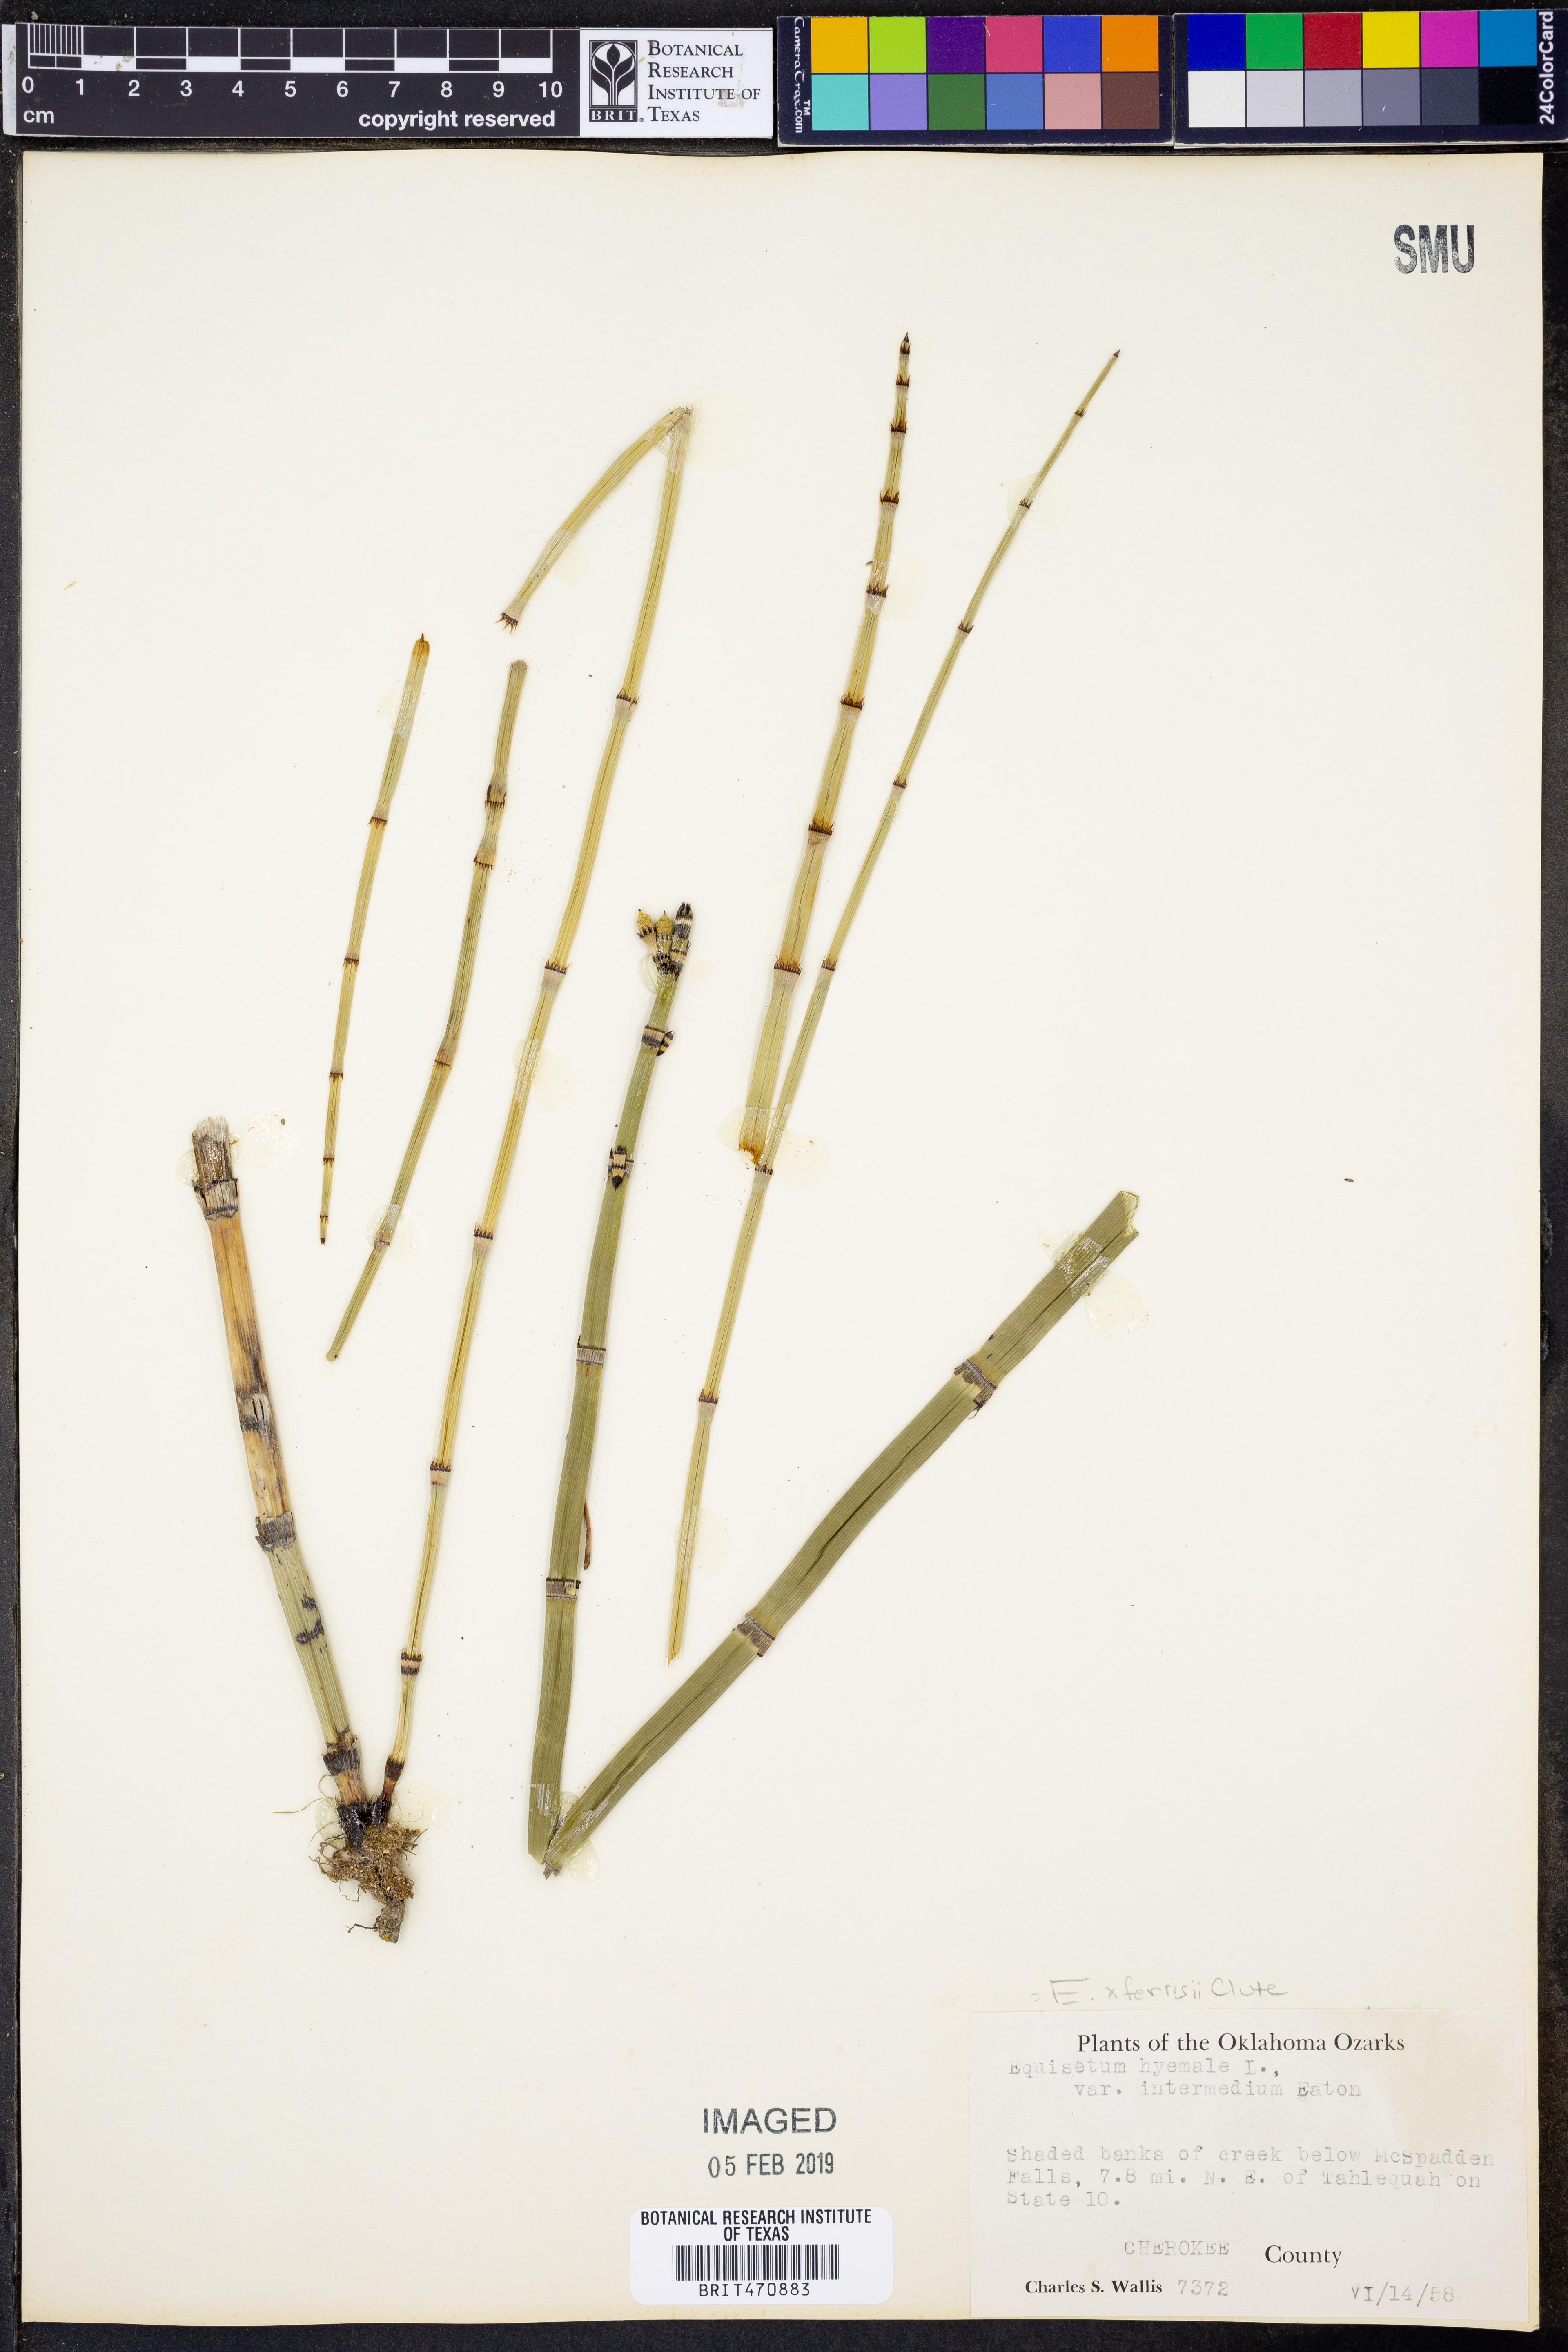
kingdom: Plantae
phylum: Tracheophyta
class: Polypodiopsida
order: Equisetales
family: Equisetaceae
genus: Equisetum
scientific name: Equisetum ferrissii
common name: Ferriss' horsetail
